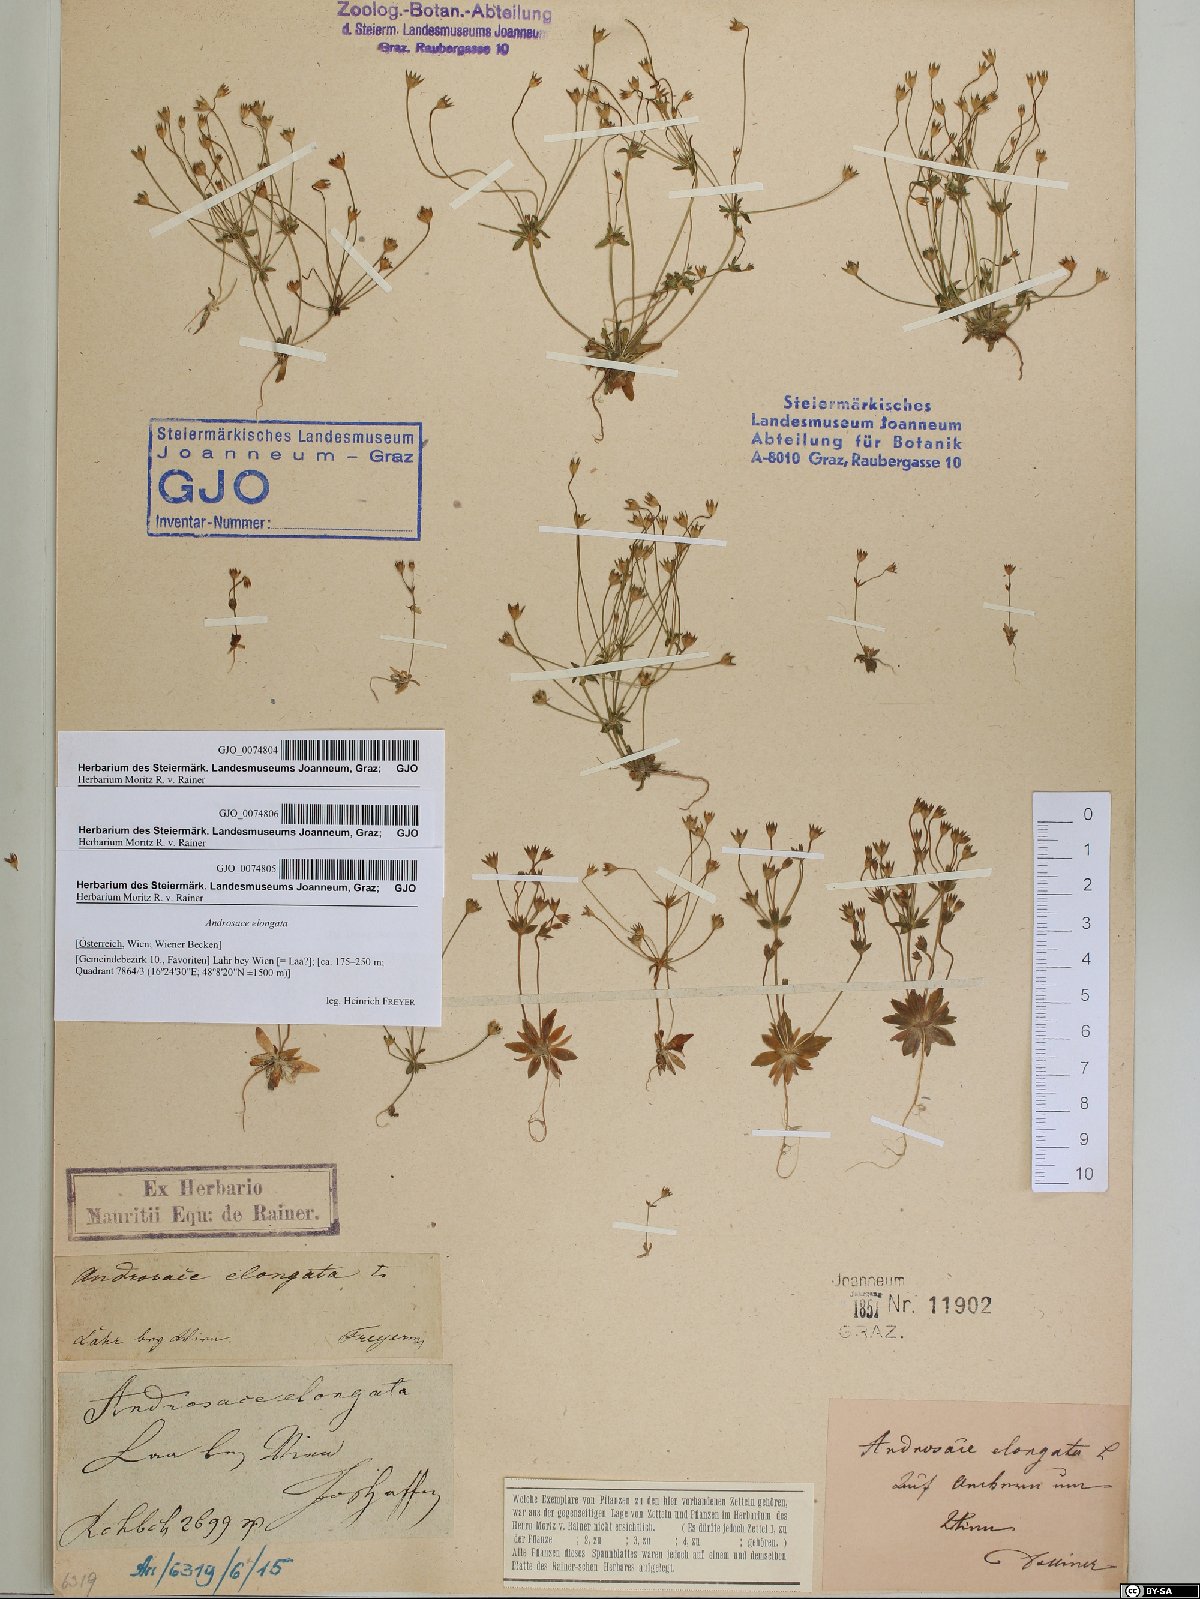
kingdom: Plantae
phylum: Tracheophyta
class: Magnoliopsida
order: Ericales
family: Primulaceae
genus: Androsace
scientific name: Androsace elongata
